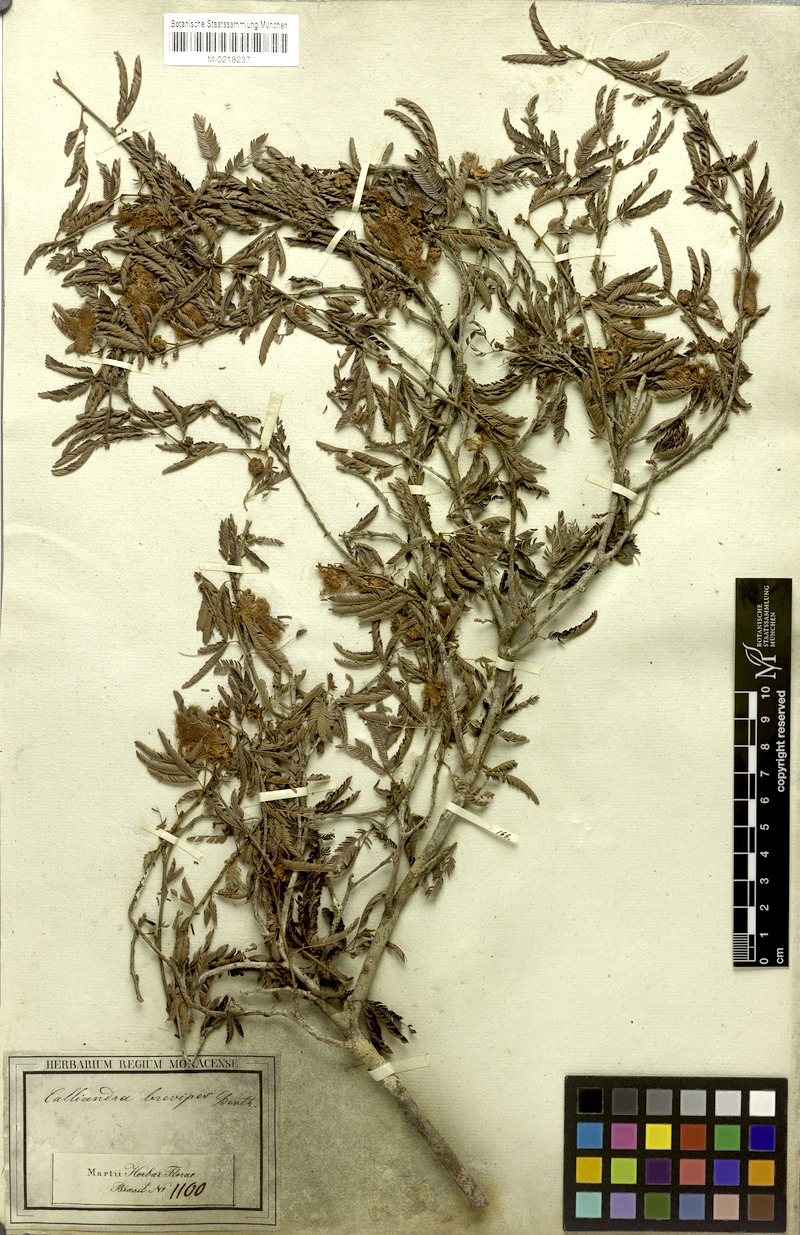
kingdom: Plantae
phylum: Tracheophyta
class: Magnoliopsida
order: Fabales
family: Fabaceae
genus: Calliandra
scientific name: Calliandra selloi
